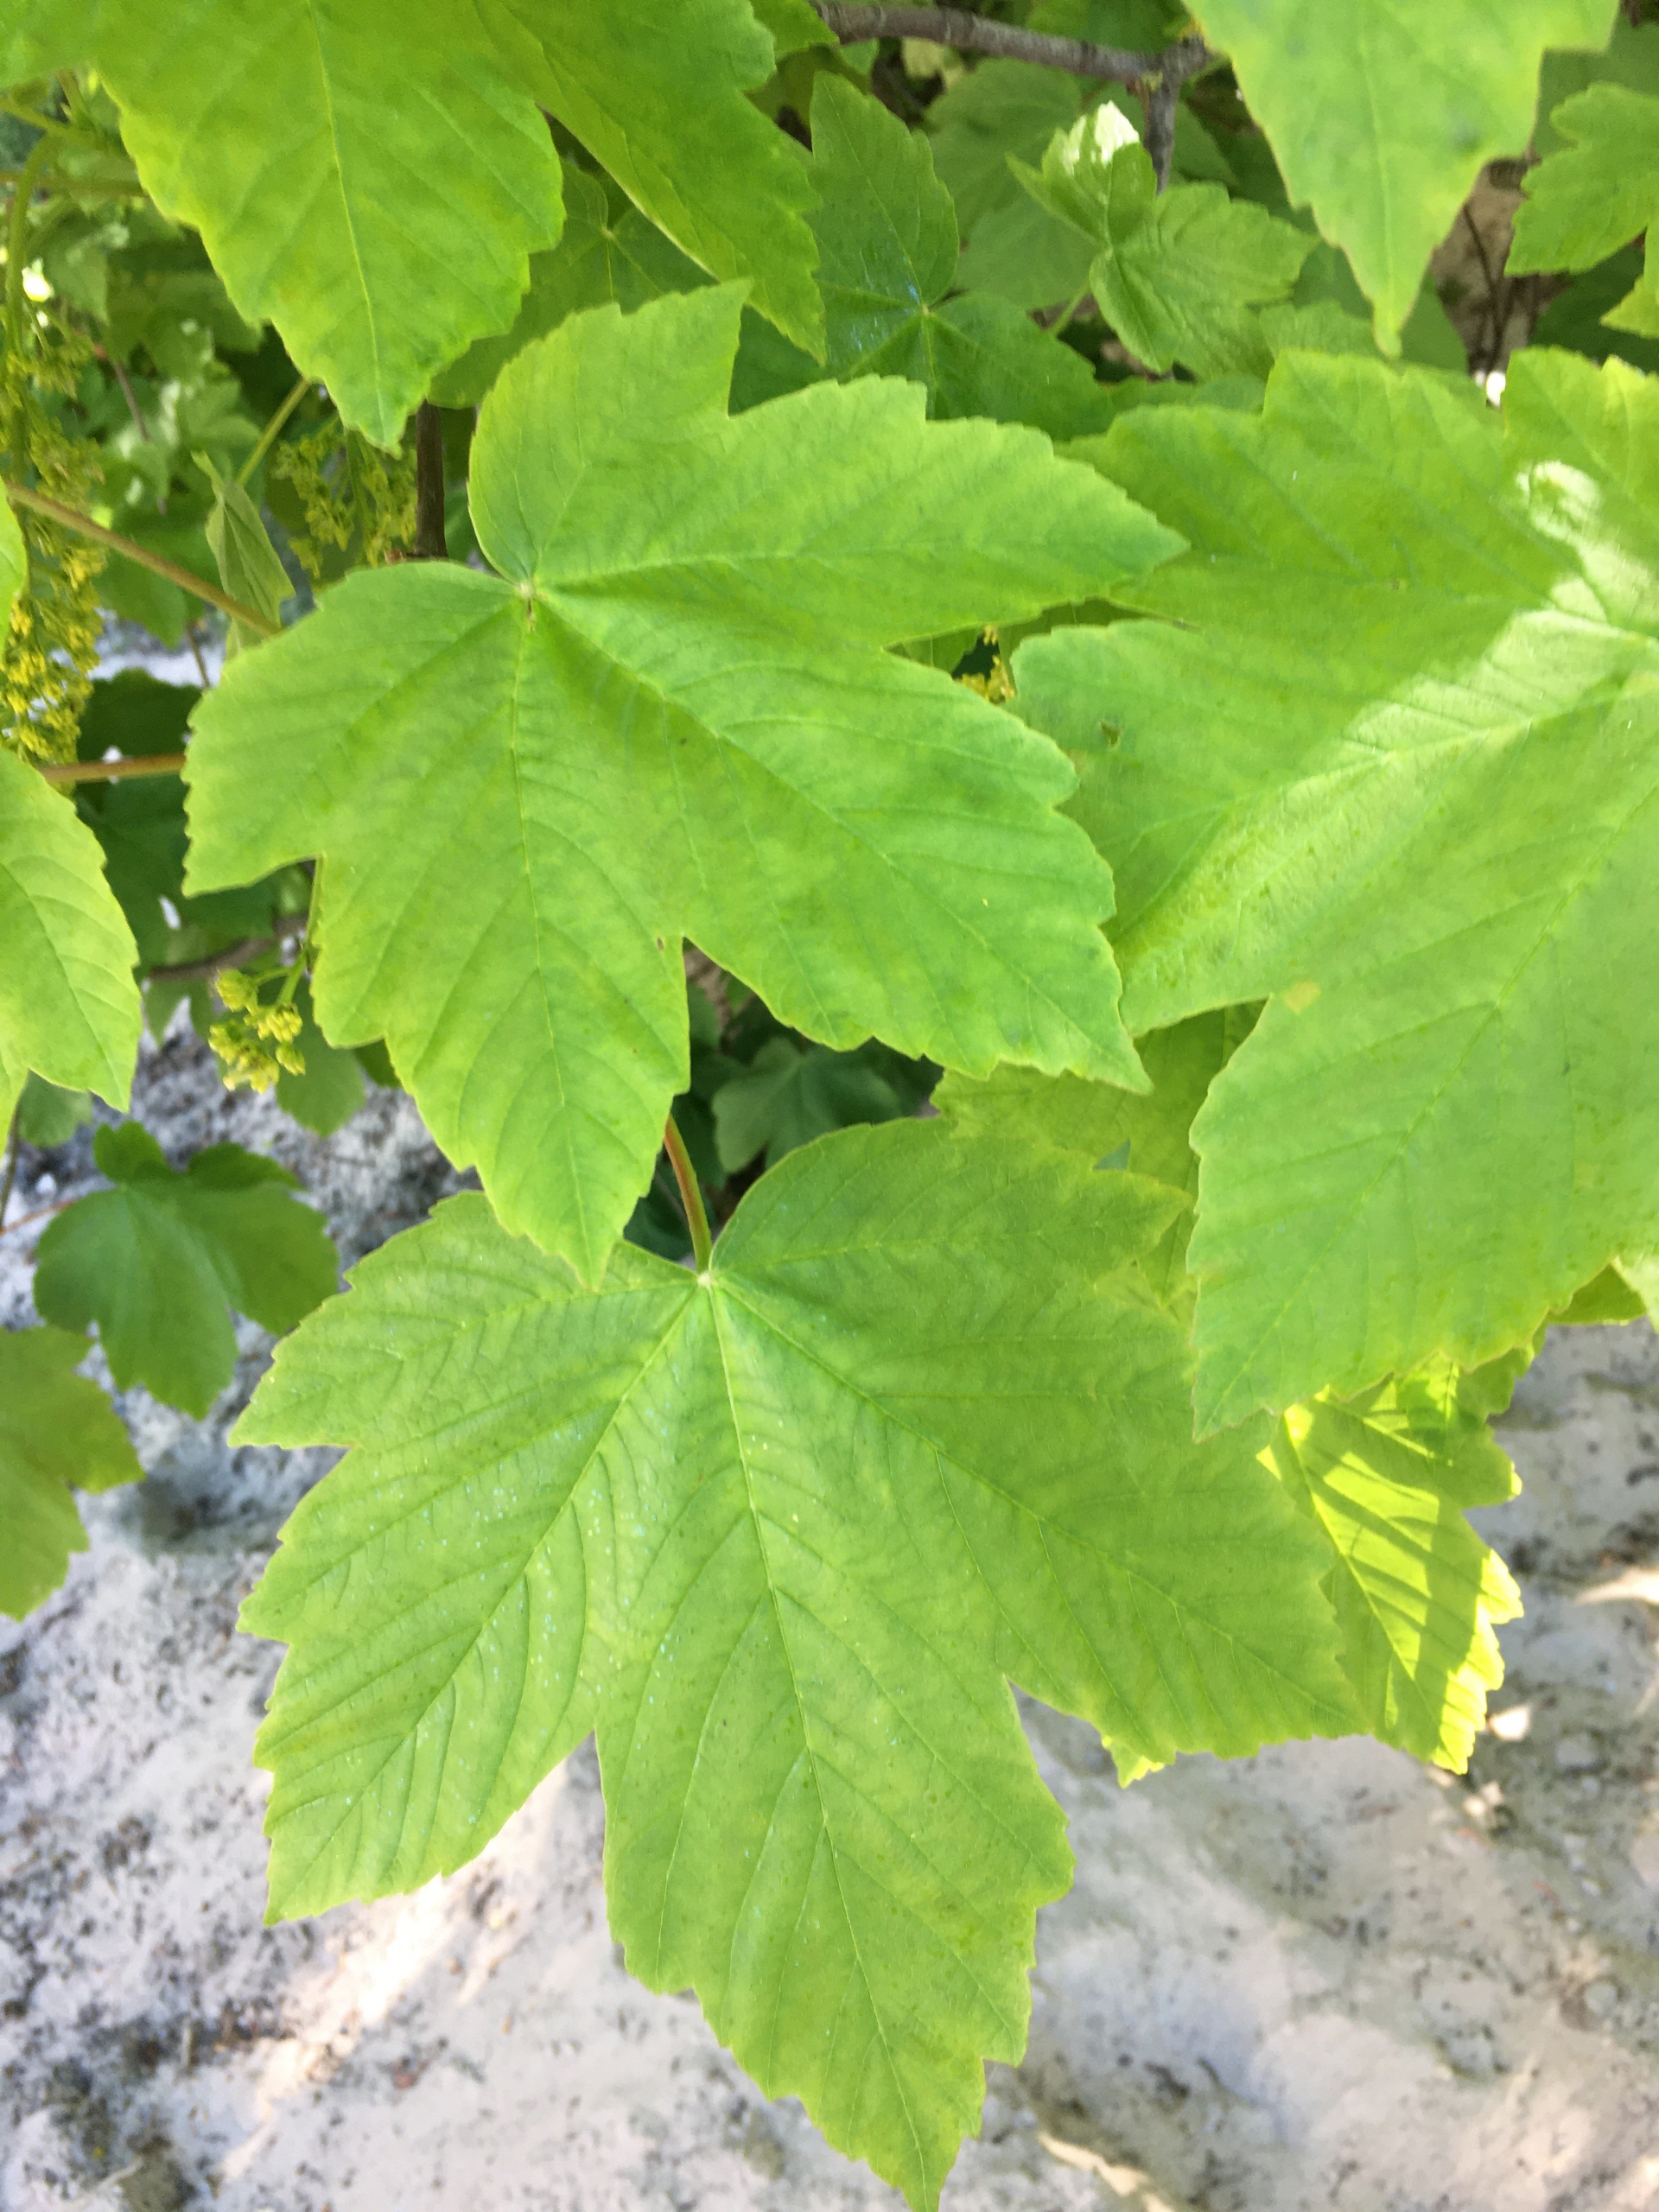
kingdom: Plantae
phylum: Tracheophyta
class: Magnoliopsida
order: Sapindales
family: Sapindaceae
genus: Acer
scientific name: Acer pseudoplatanus
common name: Ahorn
